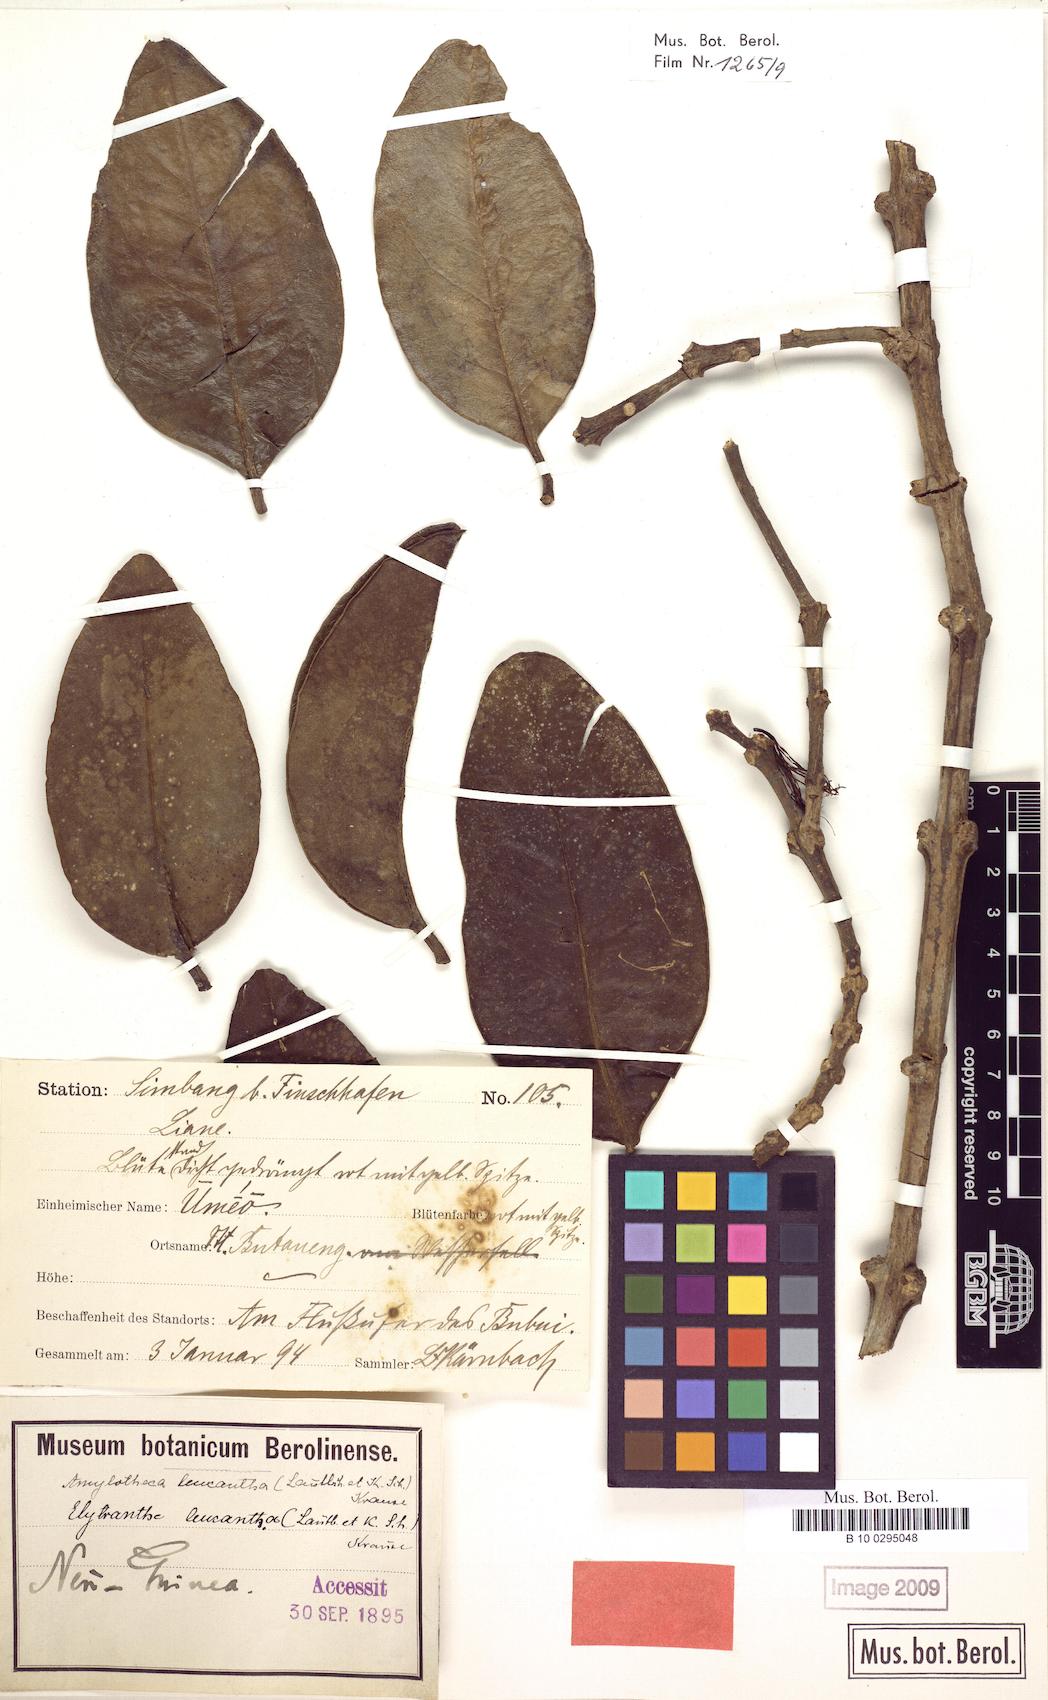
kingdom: Plantae
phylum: Tracheophyta
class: Magnoliopsida
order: Santalales
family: Loranthaceae
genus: Decaisnina
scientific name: Decaisnina hollrungii
